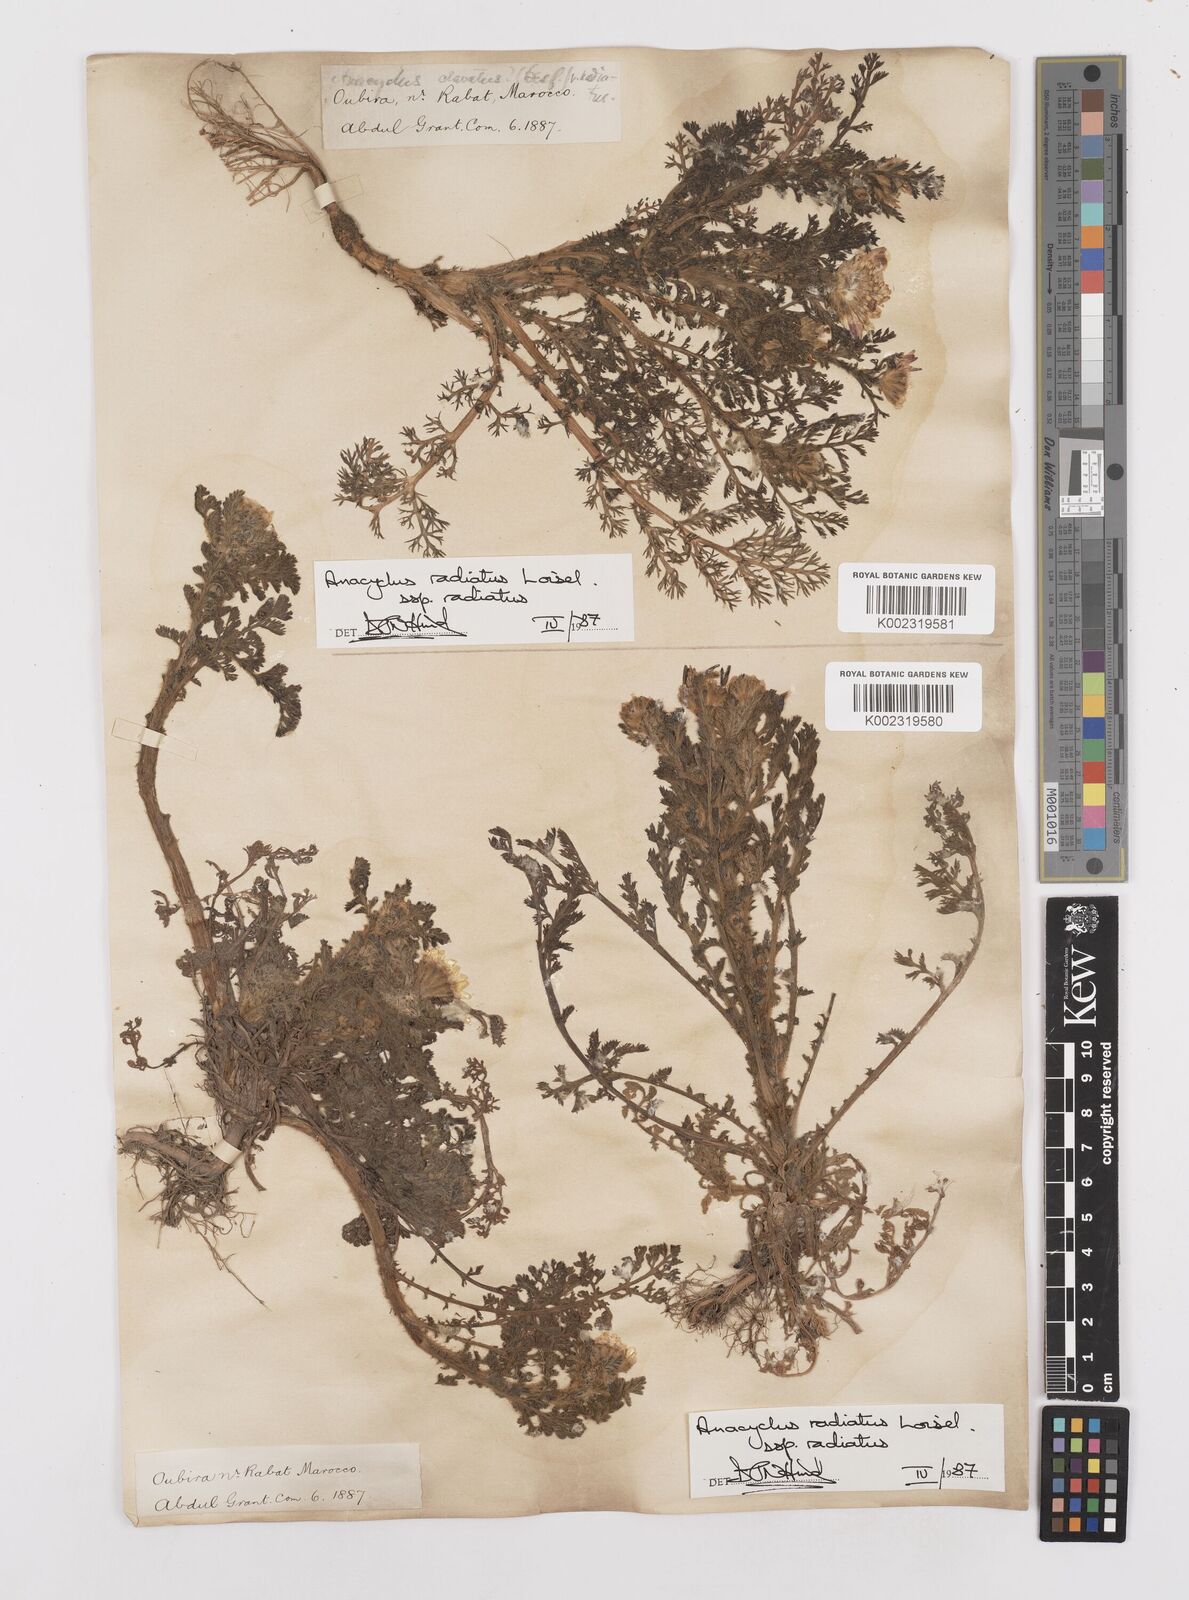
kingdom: Plantae
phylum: Tracheophyta
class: Magnoliopsida
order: Asterales
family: Asteraceae
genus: Anacyclus
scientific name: Anacyclus radiatus
